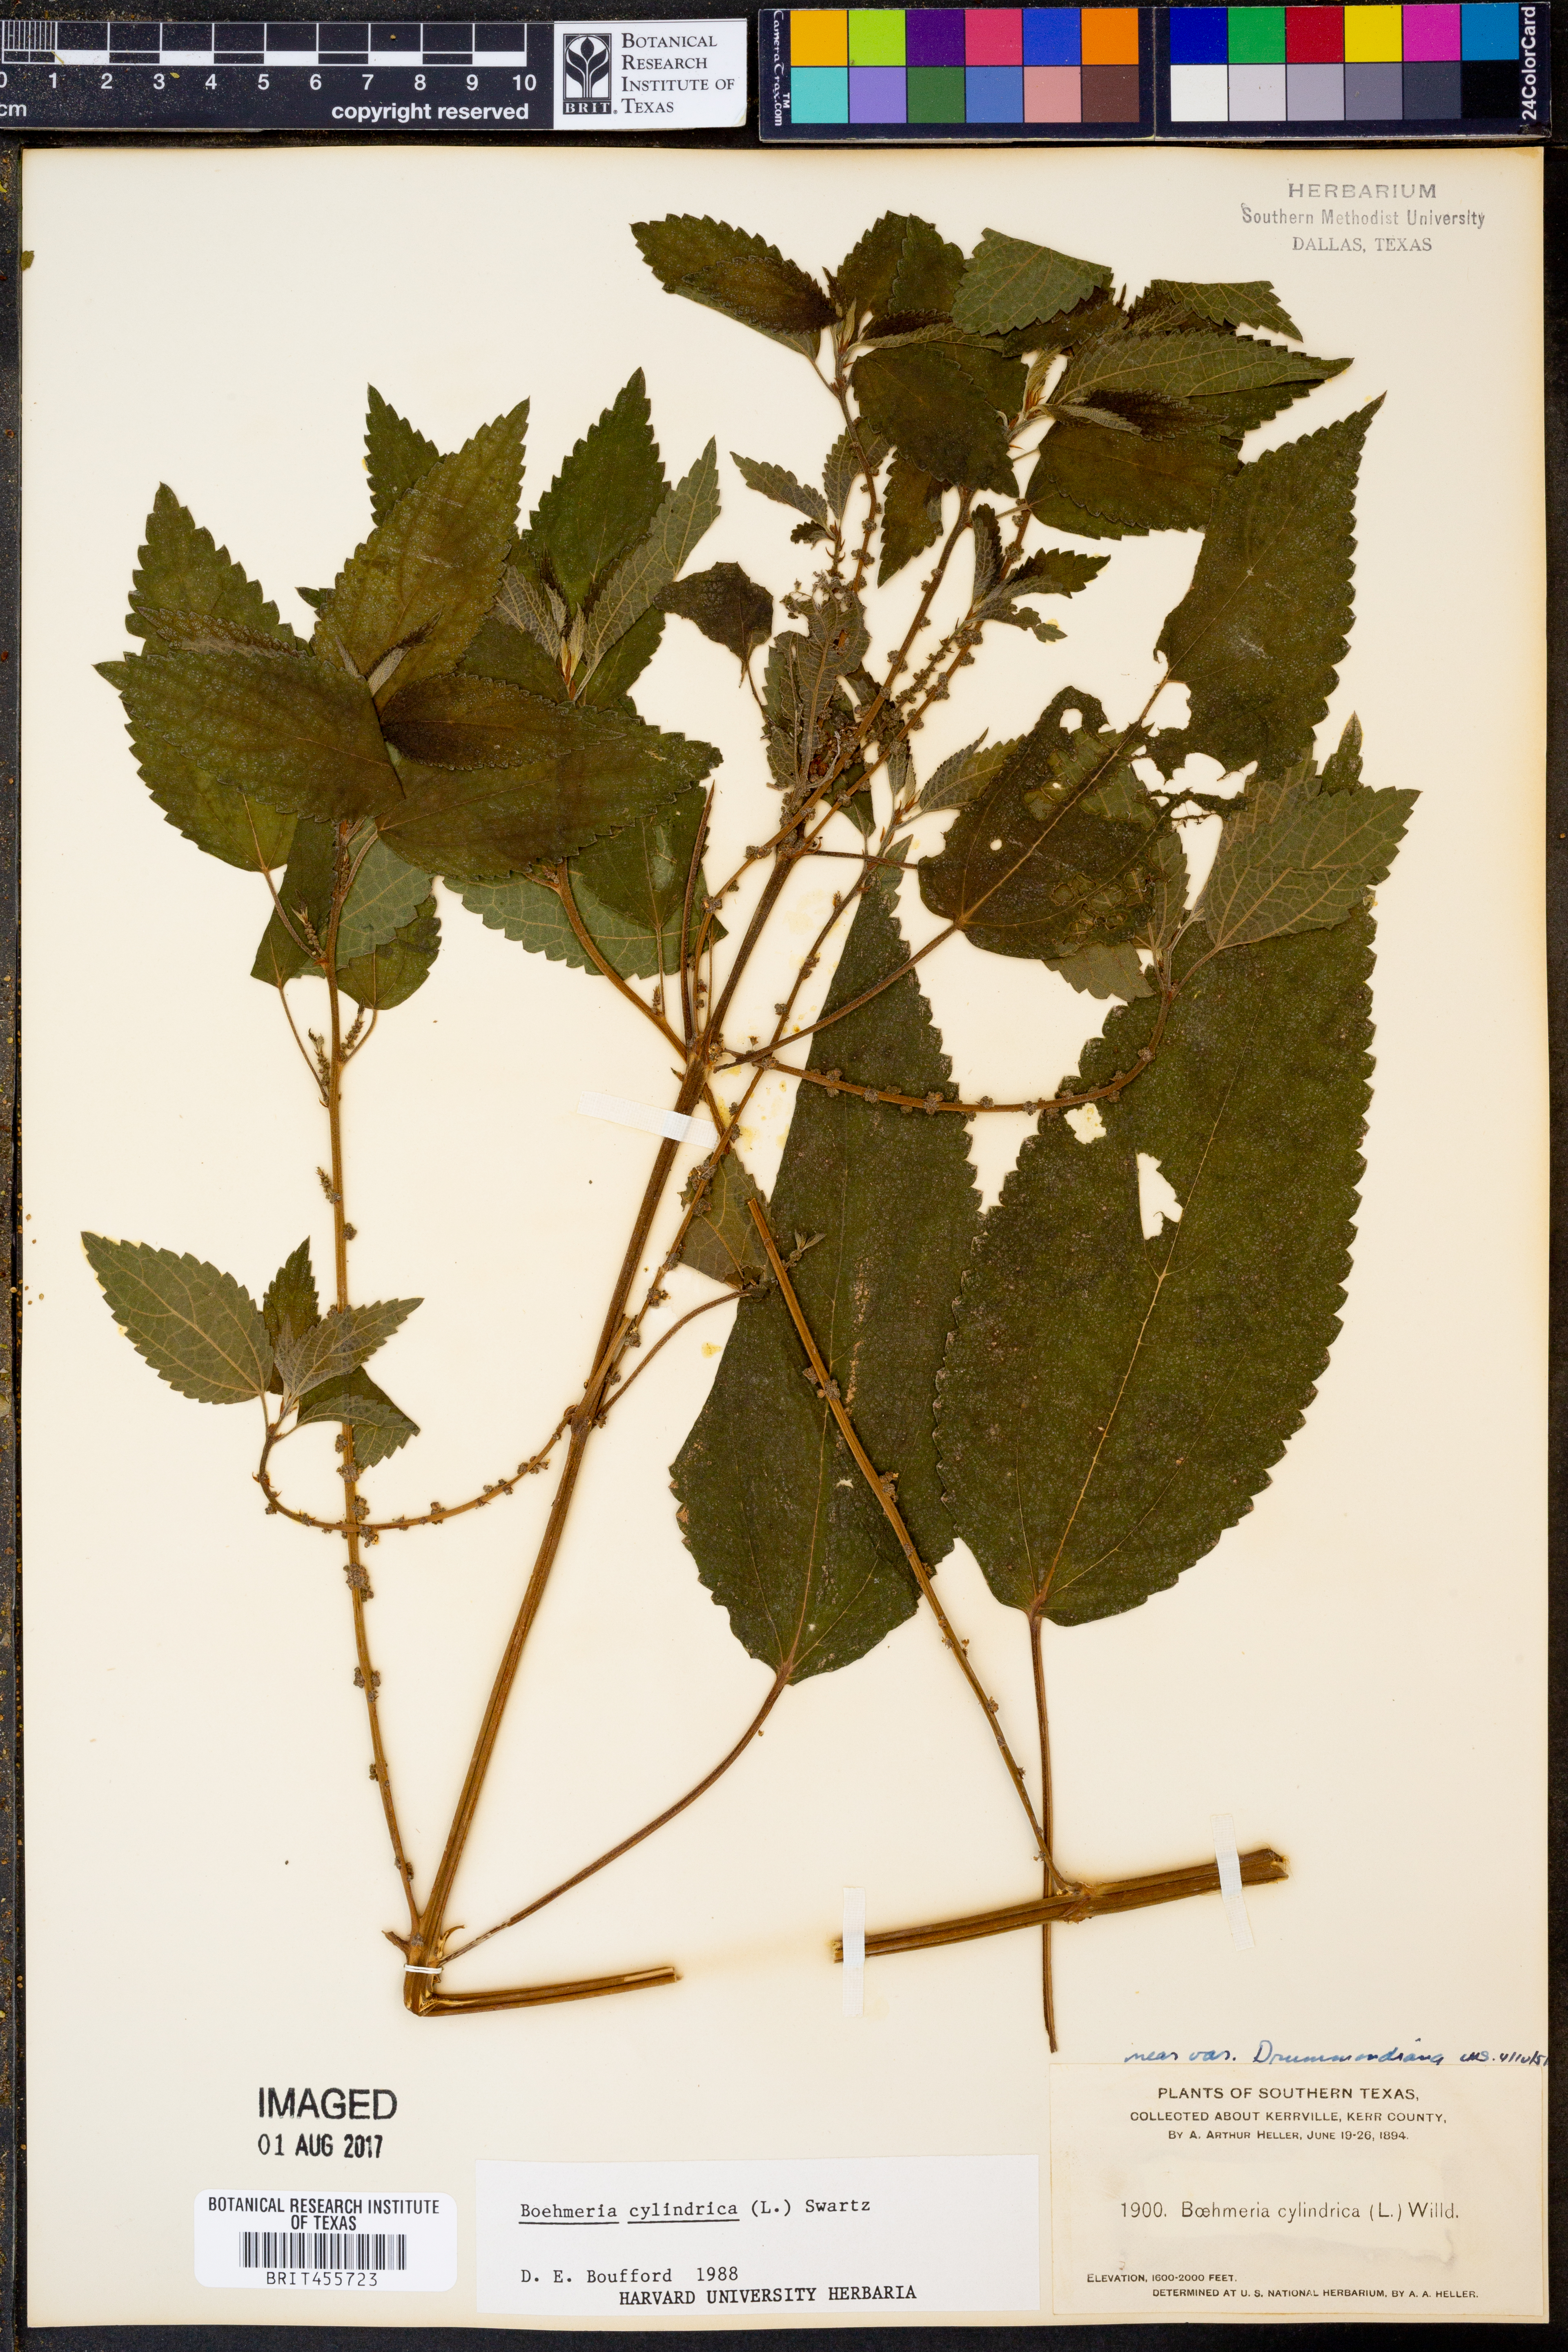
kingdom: Plantae
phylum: Tracheophyta
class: Magnoliopsida
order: Rosales
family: Urticaceae
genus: Boehmeria
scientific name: Boehmeria cylindrica
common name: Bog-hemp
